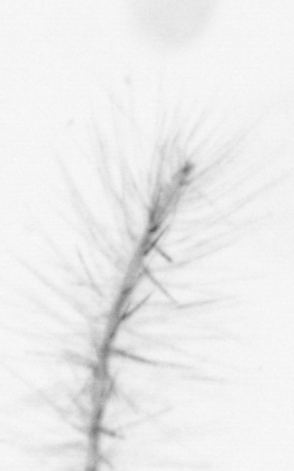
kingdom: Chromista
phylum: Ochrophyta
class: Bacillariophyceae
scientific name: Bacillariophyceae
